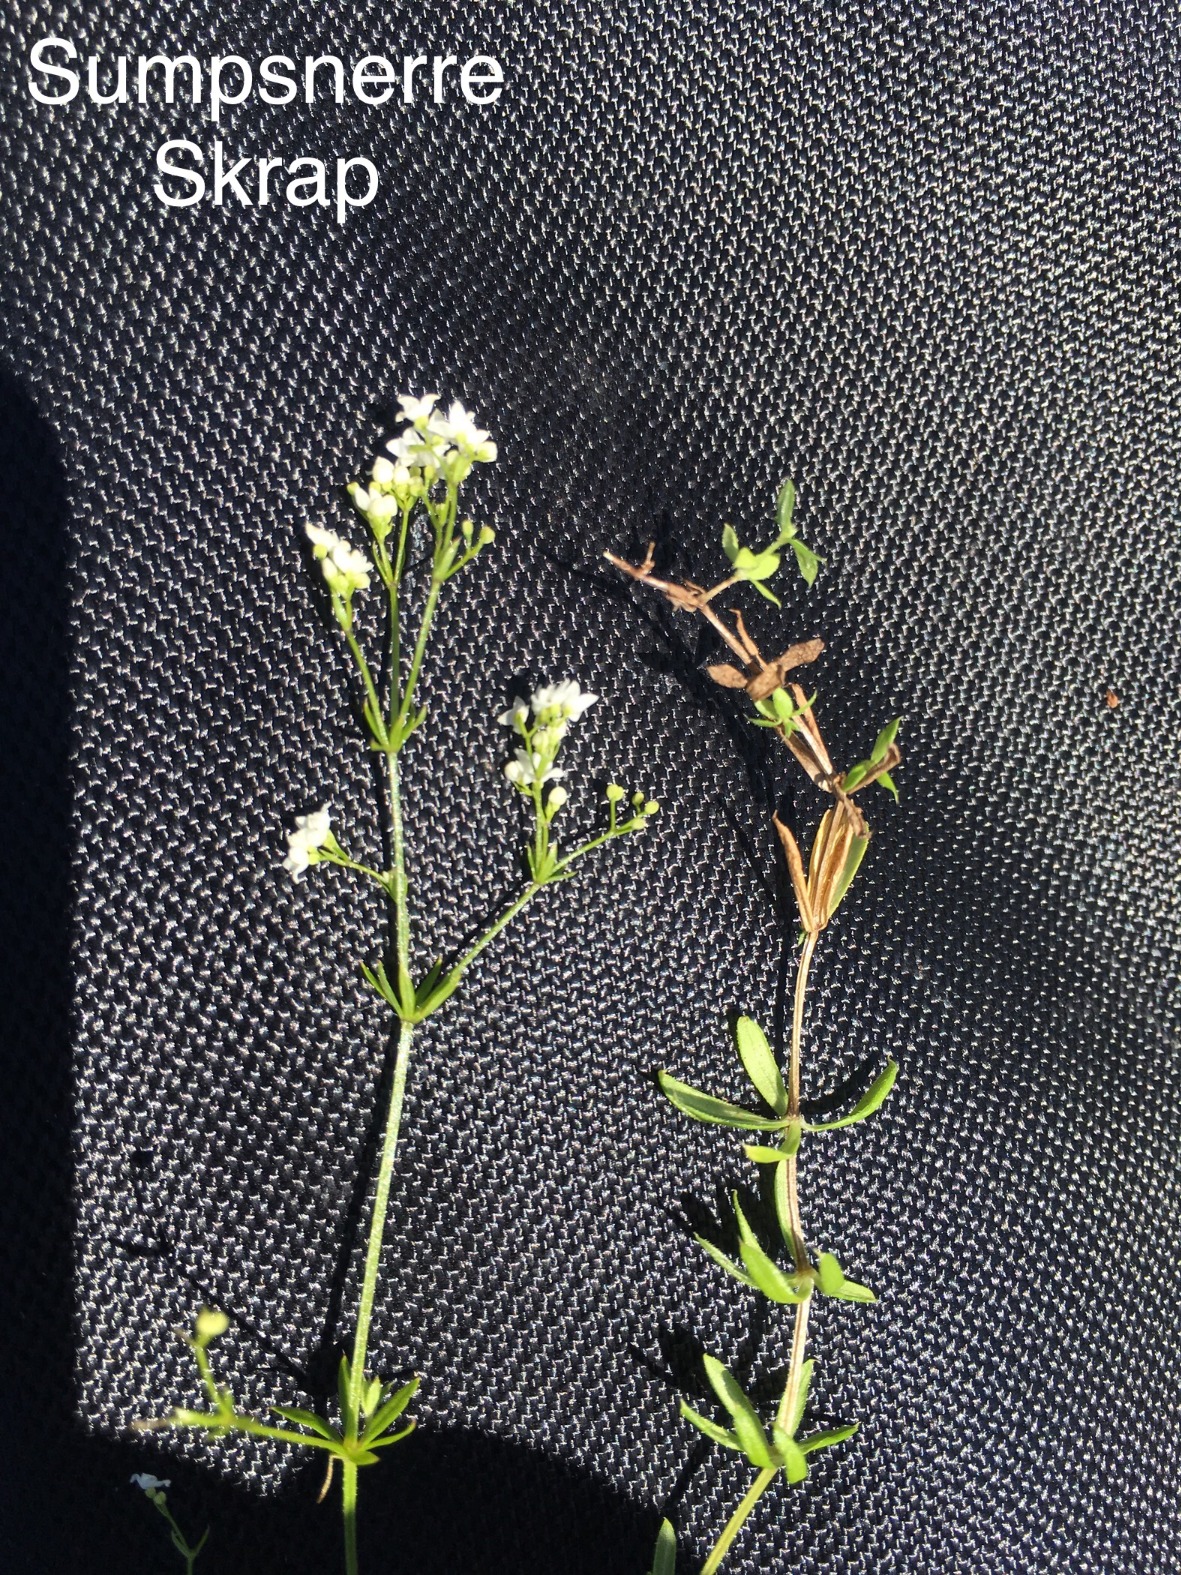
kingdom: Plantae
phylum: Tracheophyta
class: Magnoliopsida
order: Gentianales
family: Rubiaceae
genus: Galium
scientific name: Galium uliginosum
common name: Sump-snerre
